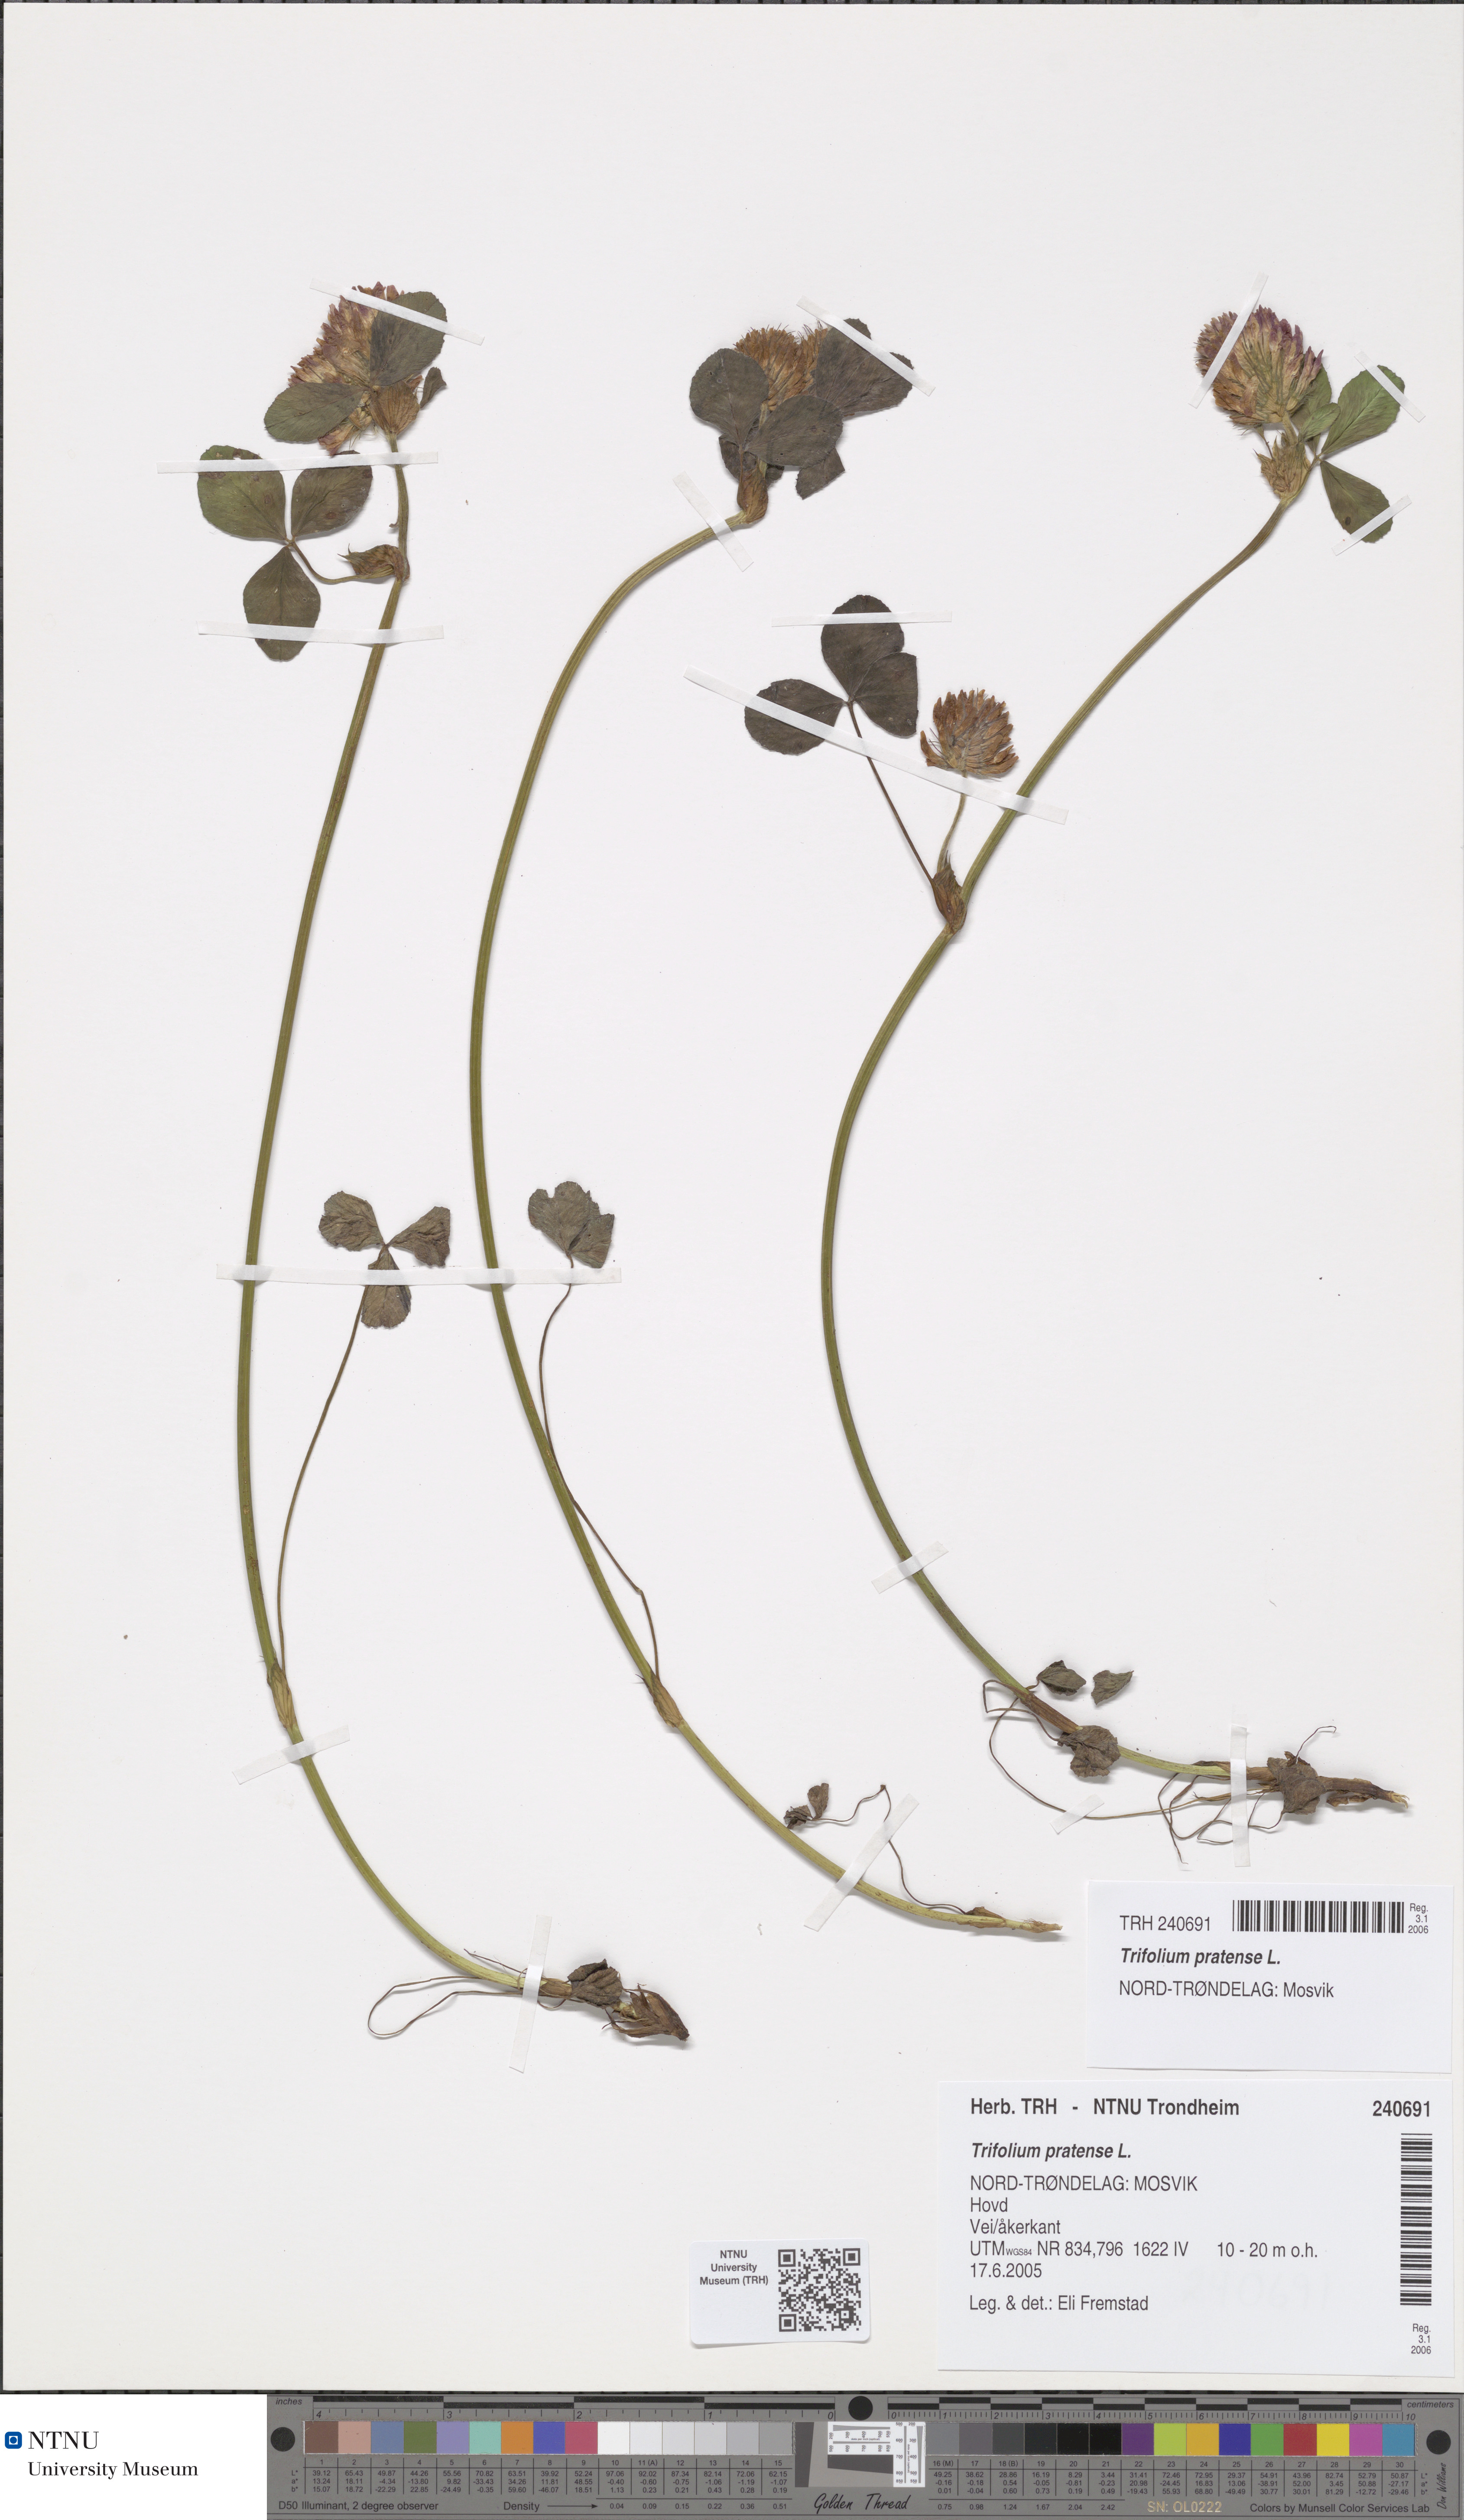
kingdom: Plantae
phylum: Tracheophyta
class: Magnoliopsida
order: Fabales
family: Fabaceae
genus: Trifolium
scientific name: Trifolium pratense
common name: Red clover
